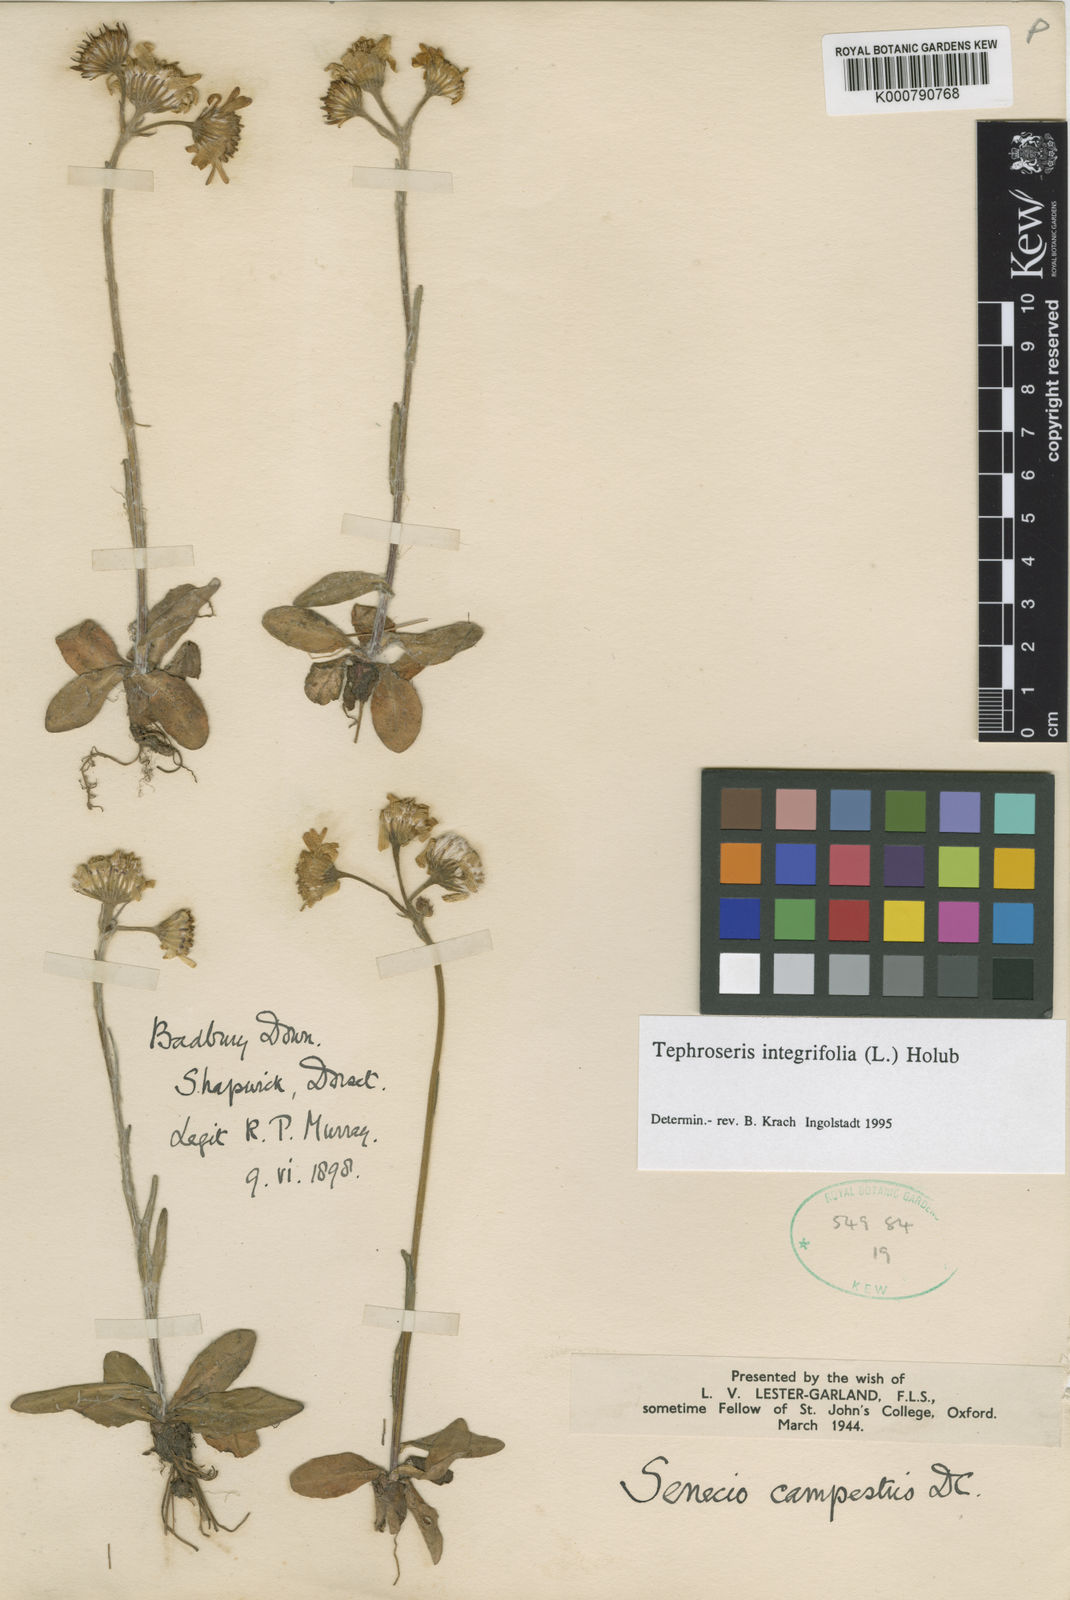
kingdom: Plantae
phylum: Tracheophyta
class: Magnoliopsida
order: Asterales
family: Asteraceae
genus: Tephroseris
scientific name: Tephroseris integrifolia
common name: Field fleawort
